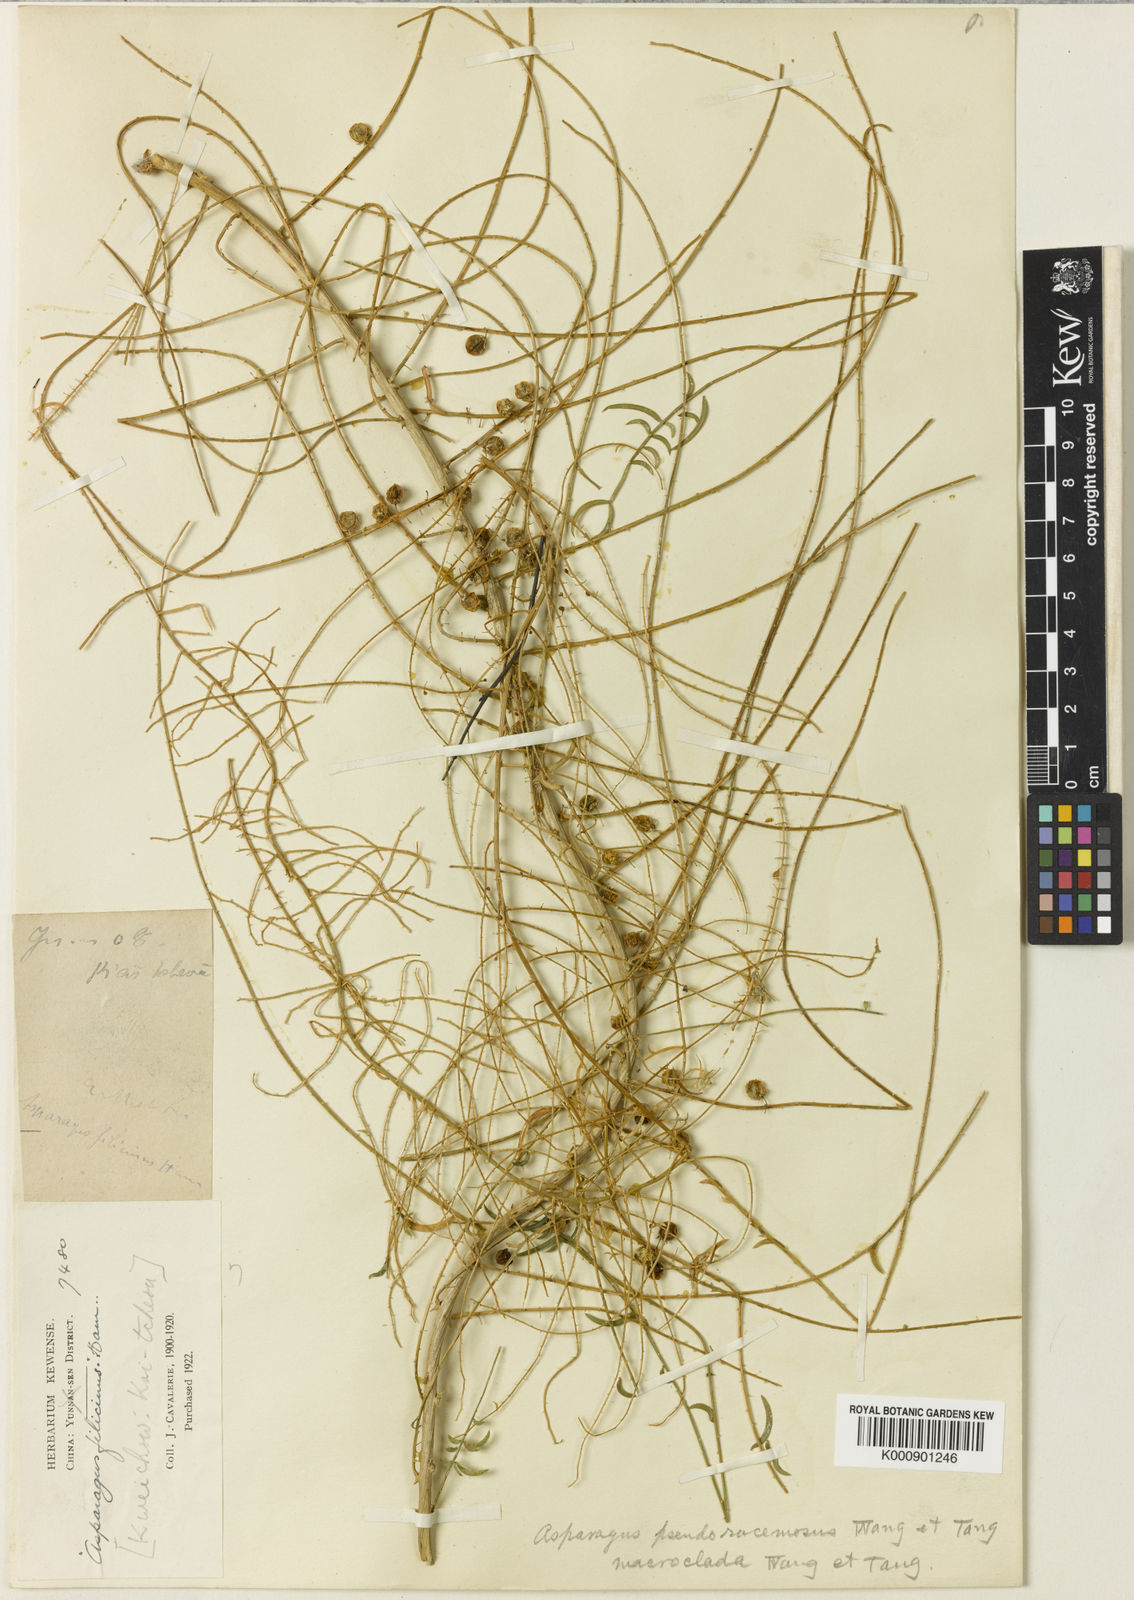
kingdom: Plantae
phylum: Tracheophyta
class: Liliopsida
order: Asparagales
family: Asparagaceae
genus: Asparagus
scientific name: Asparagus
